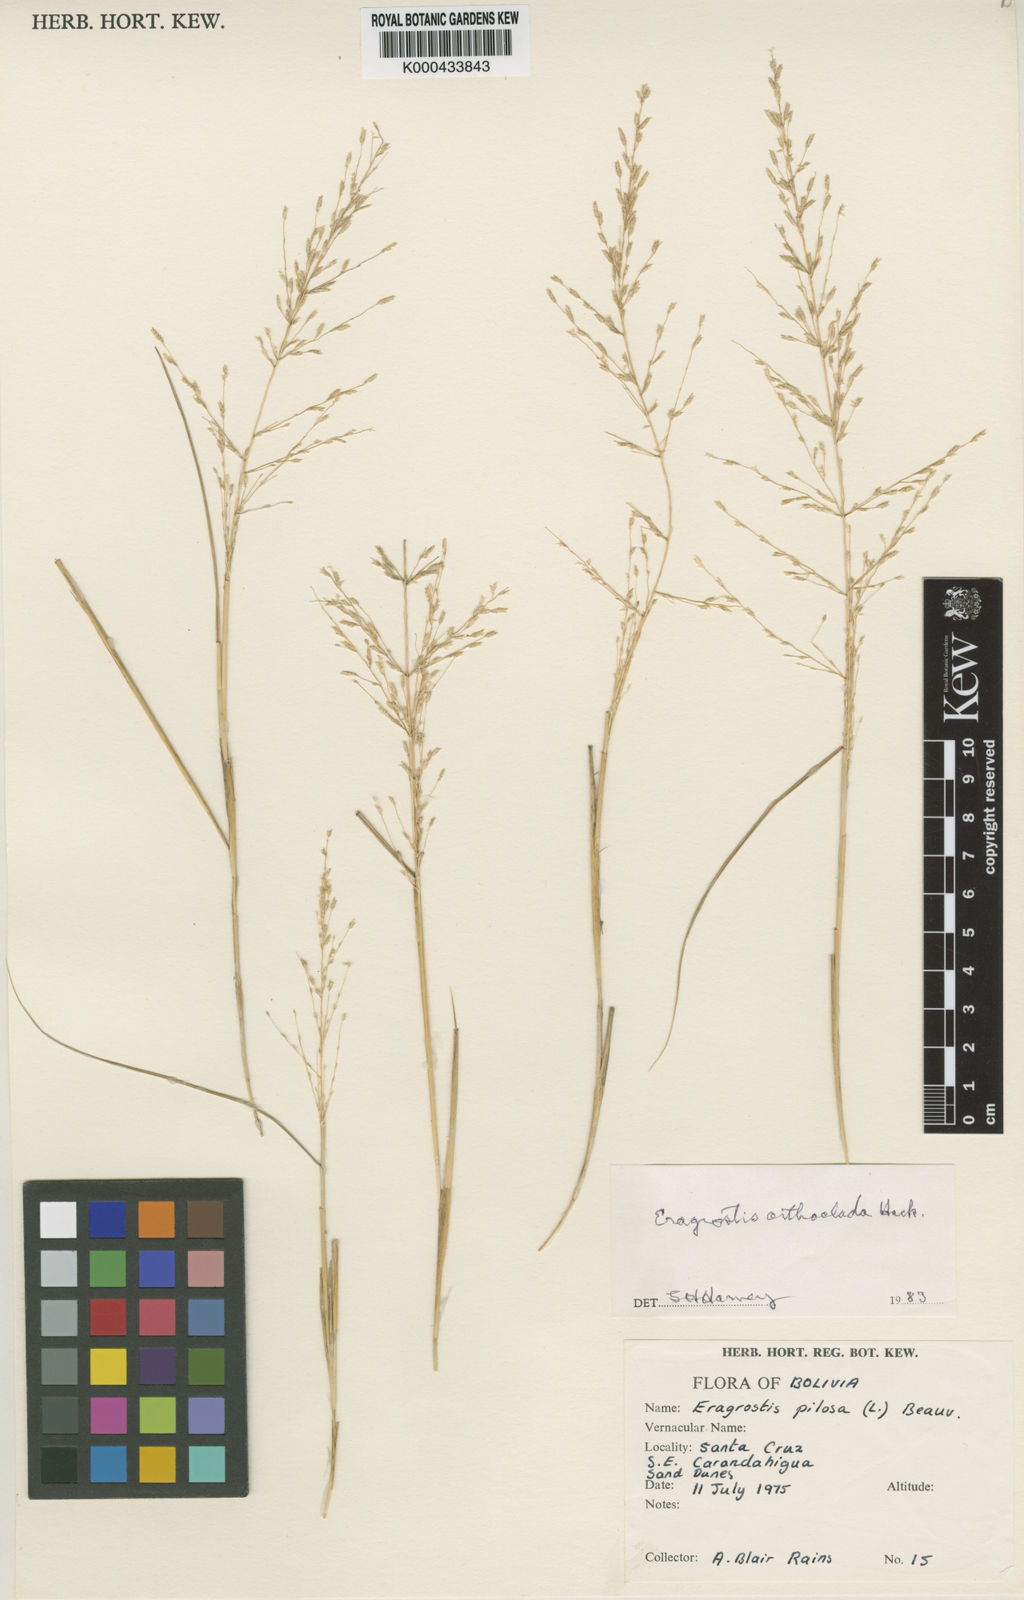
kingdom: Plantae
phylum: Tracheophyta
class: Liliopsida
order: Poales
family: Poaceae
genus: Eragrostis
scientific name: Eragrostis orthoclada
